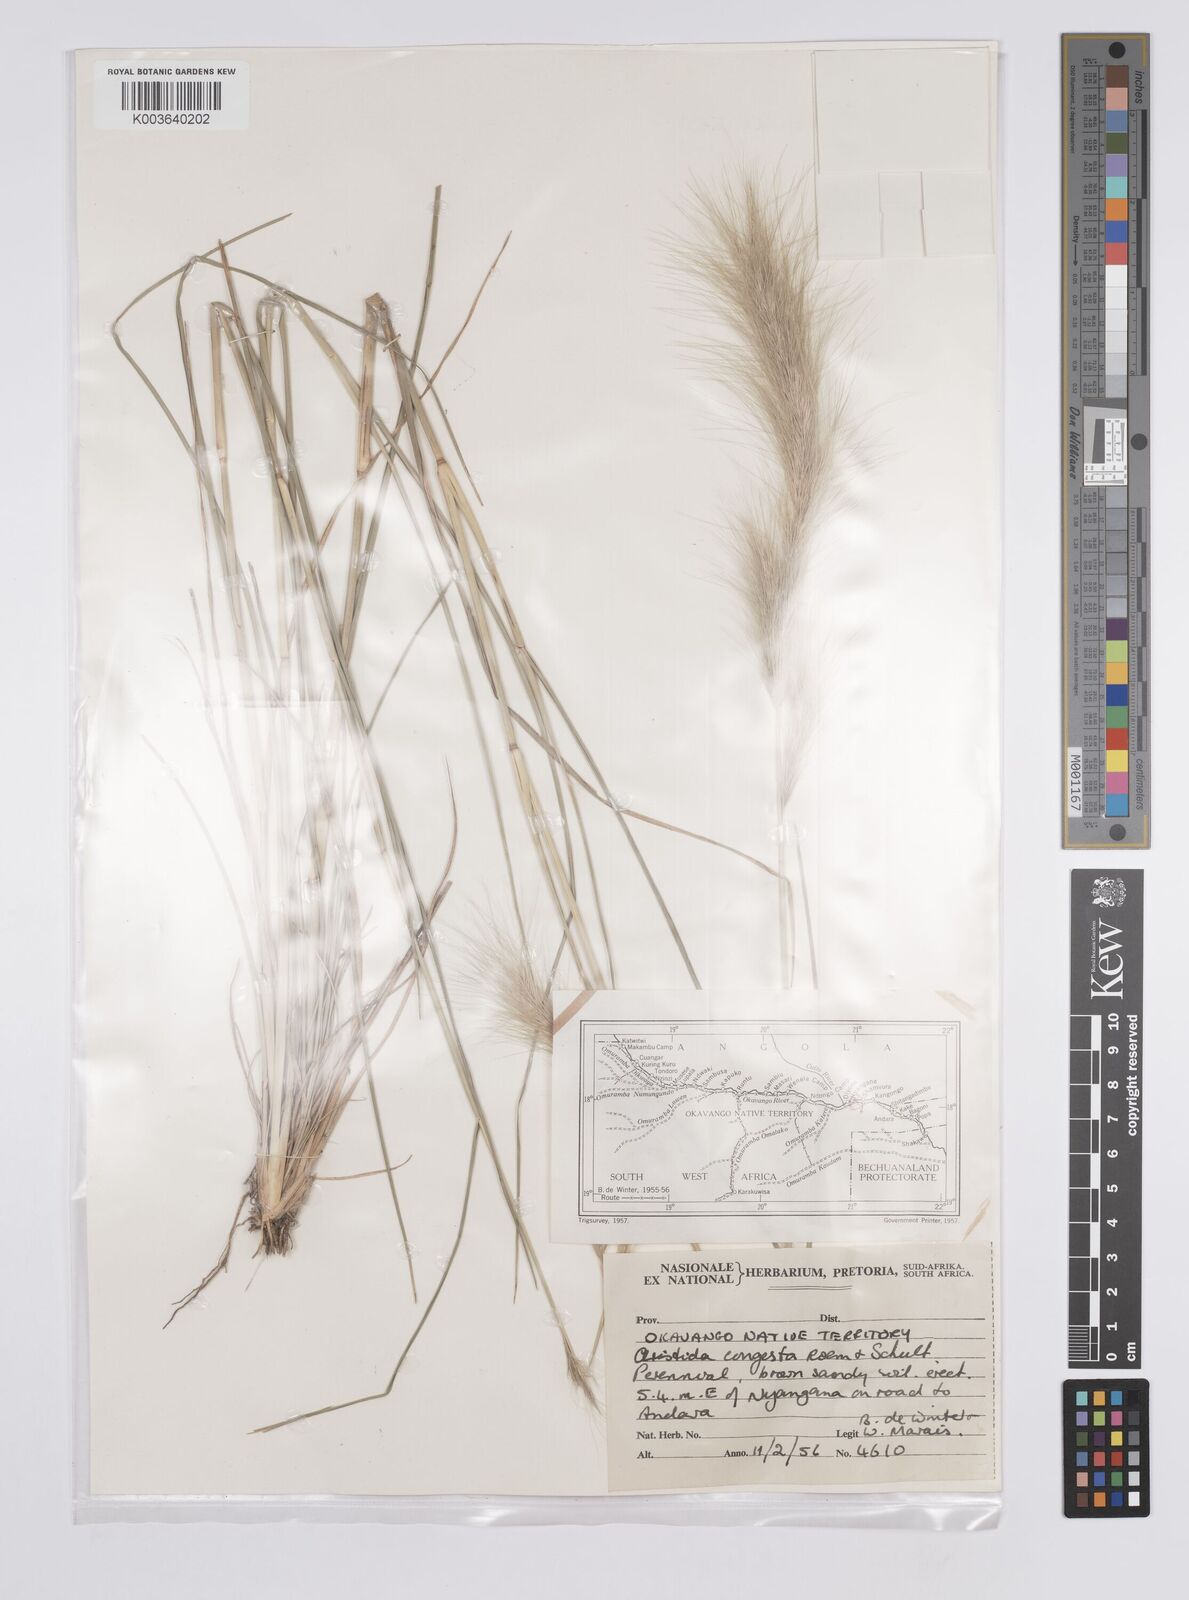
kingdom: Plantae
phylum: Tracheophyta
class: Liliopsida
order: Poales
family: Poaceae
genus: Aristida
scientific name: Aristida congesta
